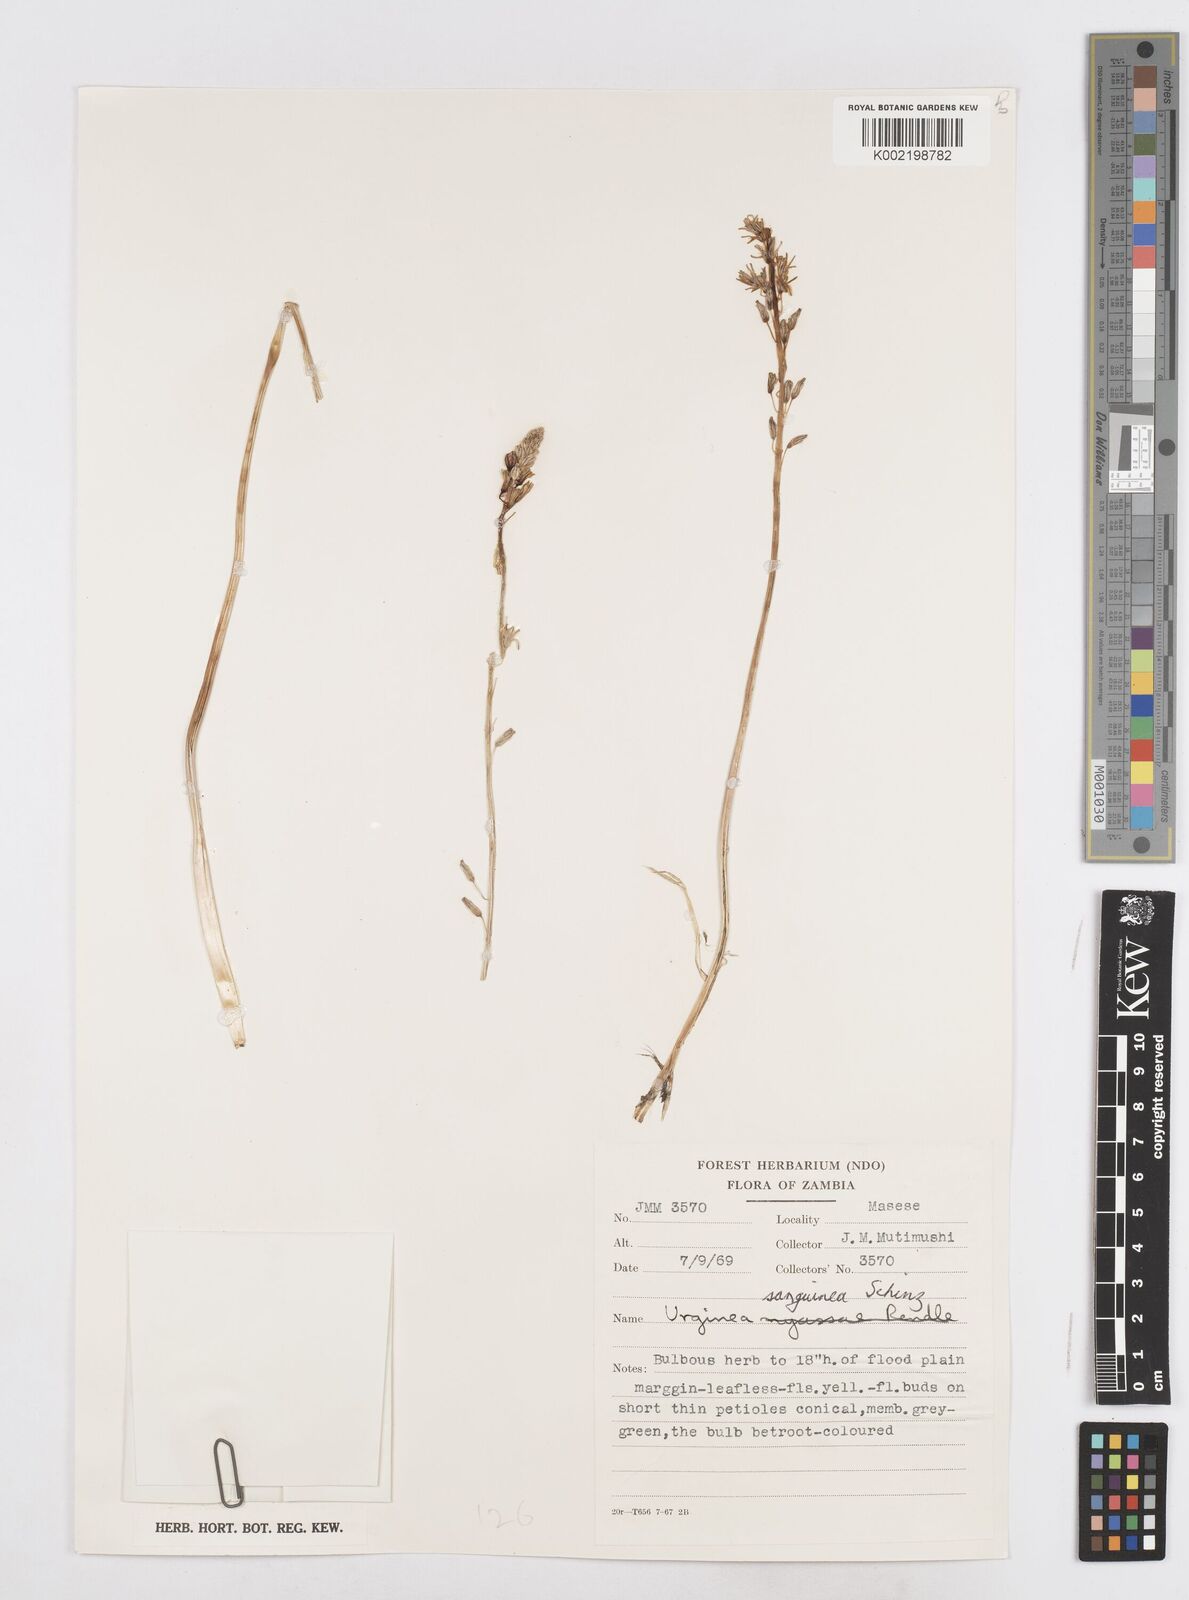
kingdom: Plantae
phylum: Tracheophyta
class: Liliopsida
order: Asparagales
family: Asparagaceae
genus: Drimia
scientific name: Drimia sanguinea
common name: Transvaal slangkop
